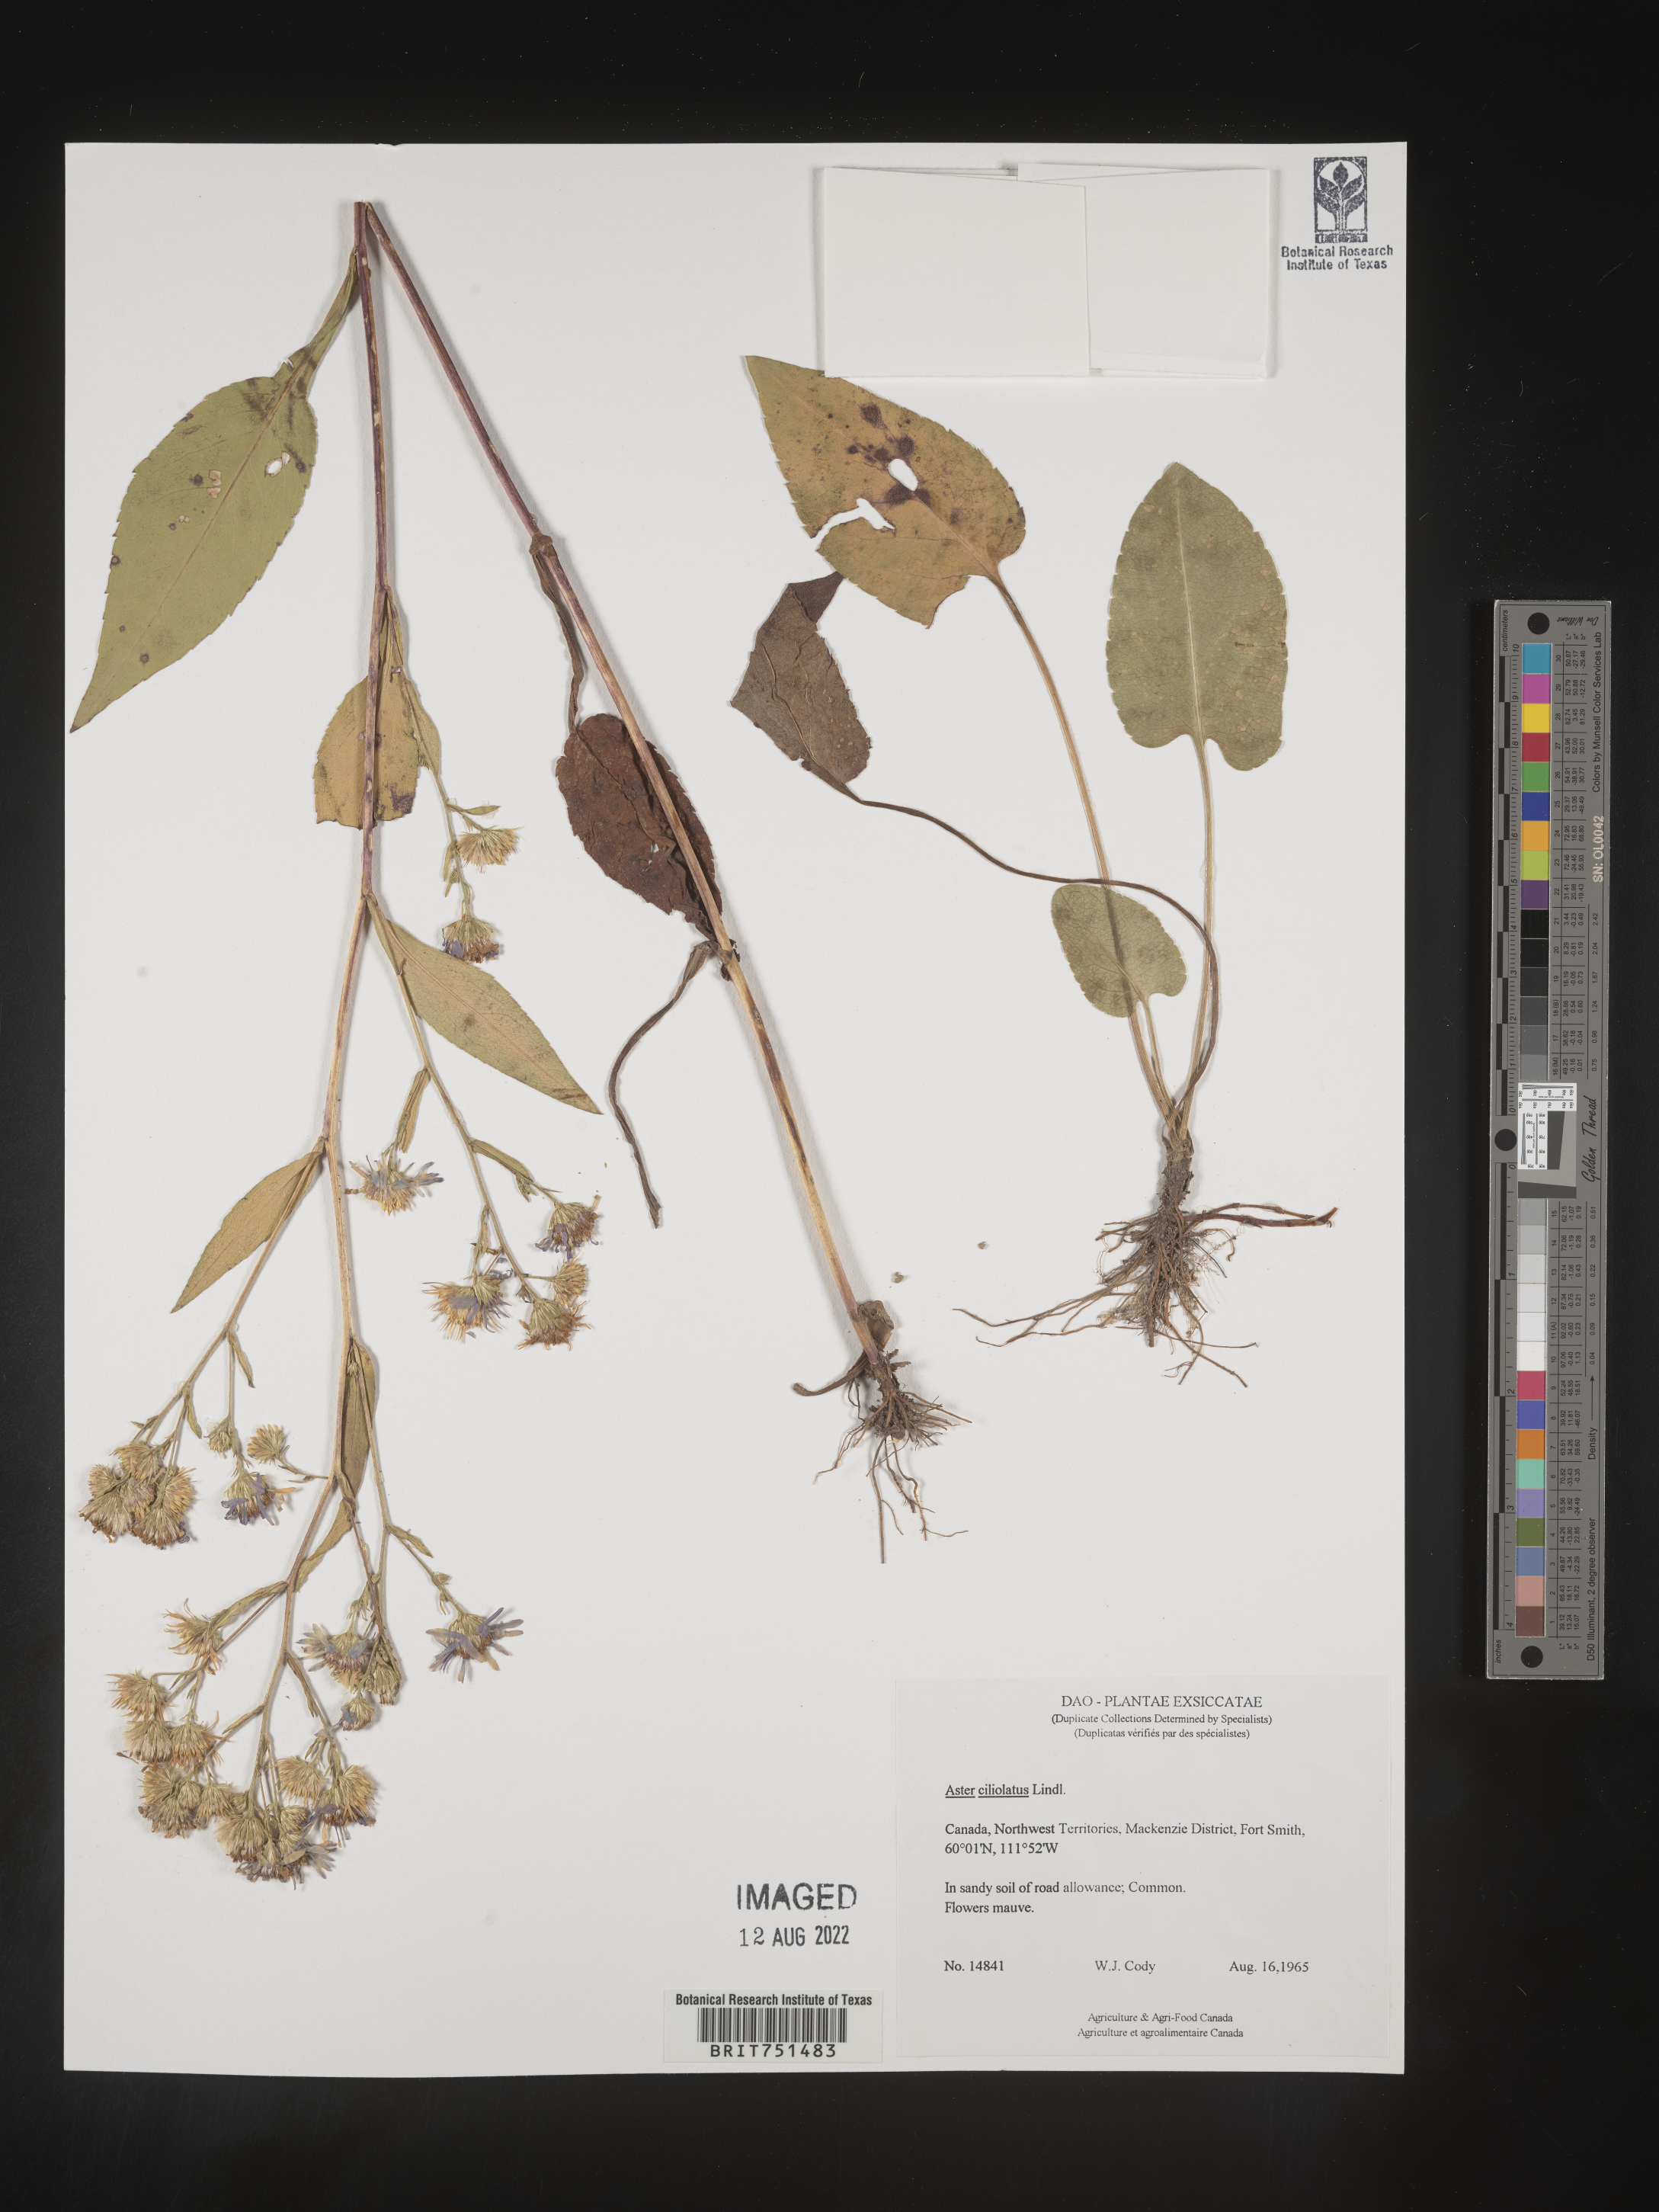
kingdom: Plantae
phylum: Tracheophyta
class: Magnoliopsida
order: Asterales
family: Asteraceae
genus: Symphyotrichum
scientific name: Symphyotrichum ciliolatum
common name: Fringed blue aster
